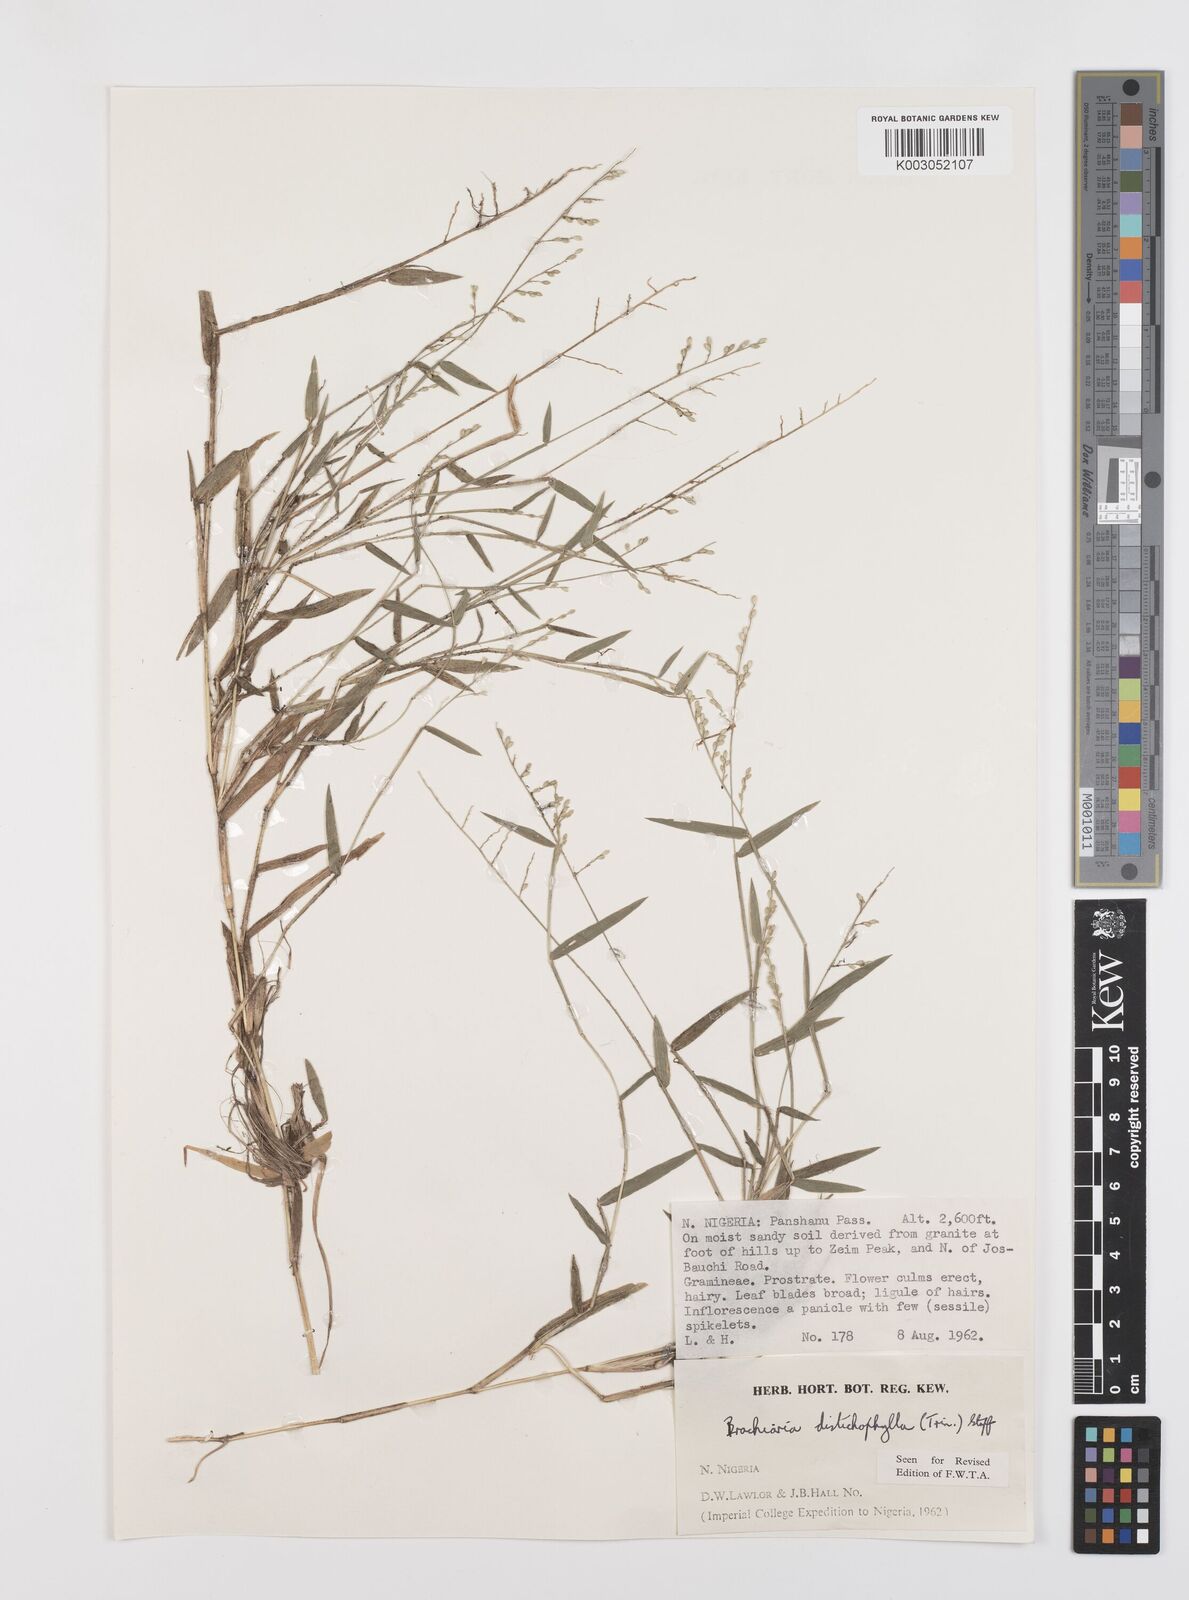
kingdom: Plantae
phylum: Tracheophyta
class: Liliopsida
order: Poales
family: Poaceae
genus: Urochloa
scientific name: Urochloa villosa
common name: Hairy signalgrass
